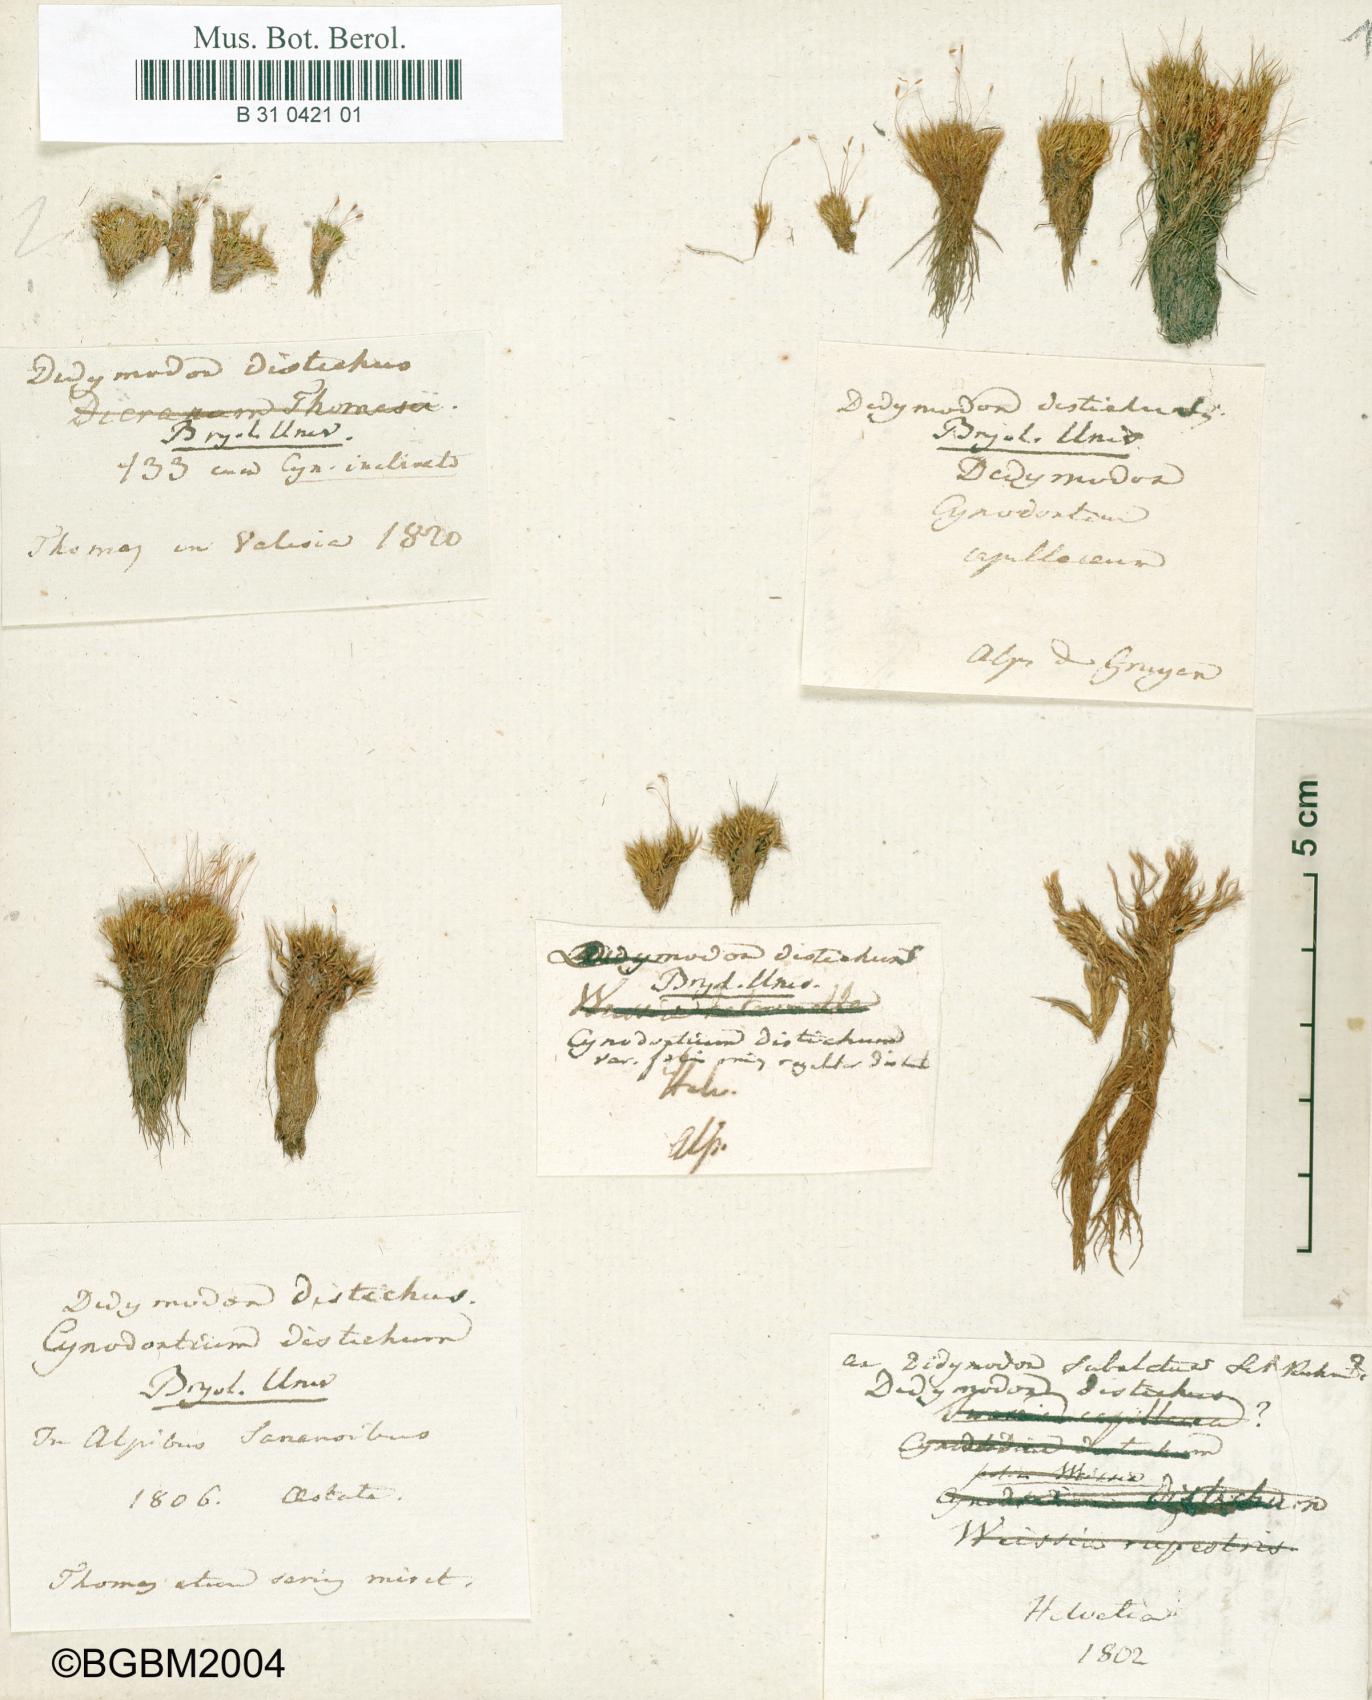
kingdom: Plantae
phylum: Bryophyta
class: Bryopsida
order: Scouleriales
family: Distichiaceae
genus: Distichium
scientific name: Distichium capillaceum
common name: Erect-fruited iris moss
